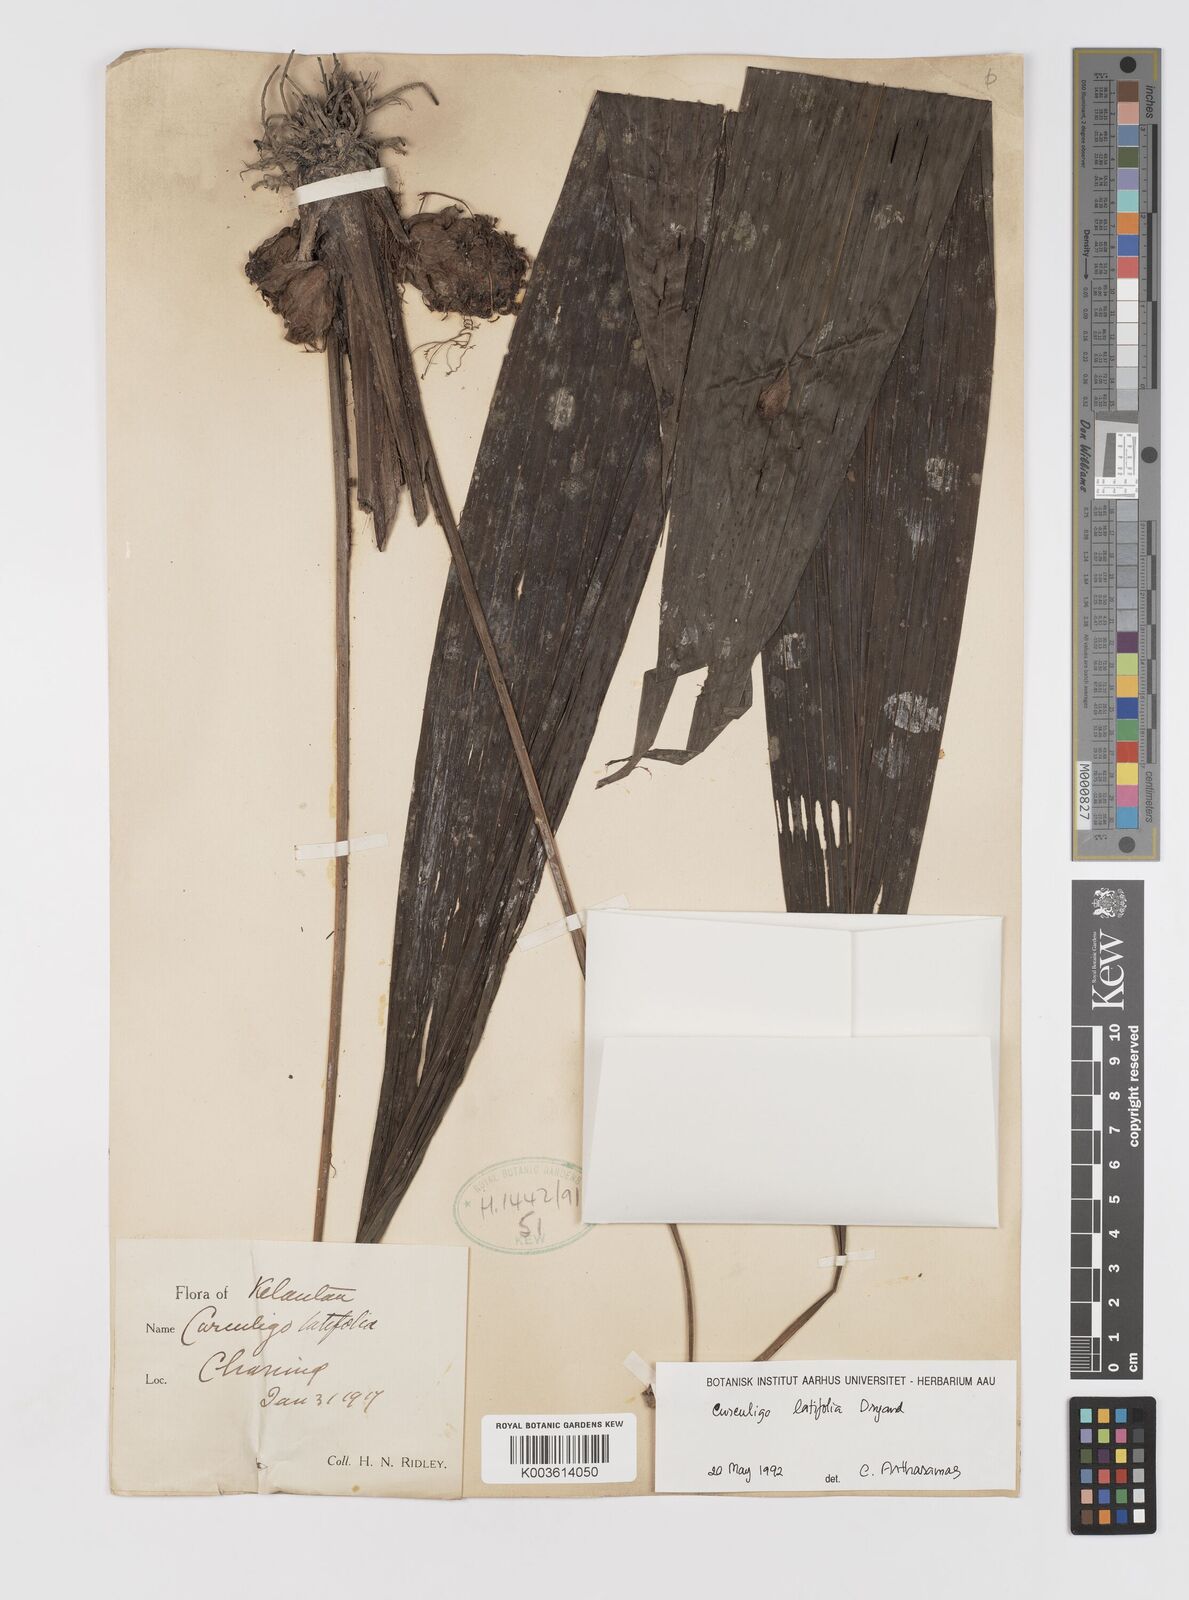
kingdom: Plantae
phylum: Tracheophyta
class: Liliopsida
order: Asparagales
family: Hypoxidaceae
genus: Curculigo
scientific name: Curculigo latifolia
